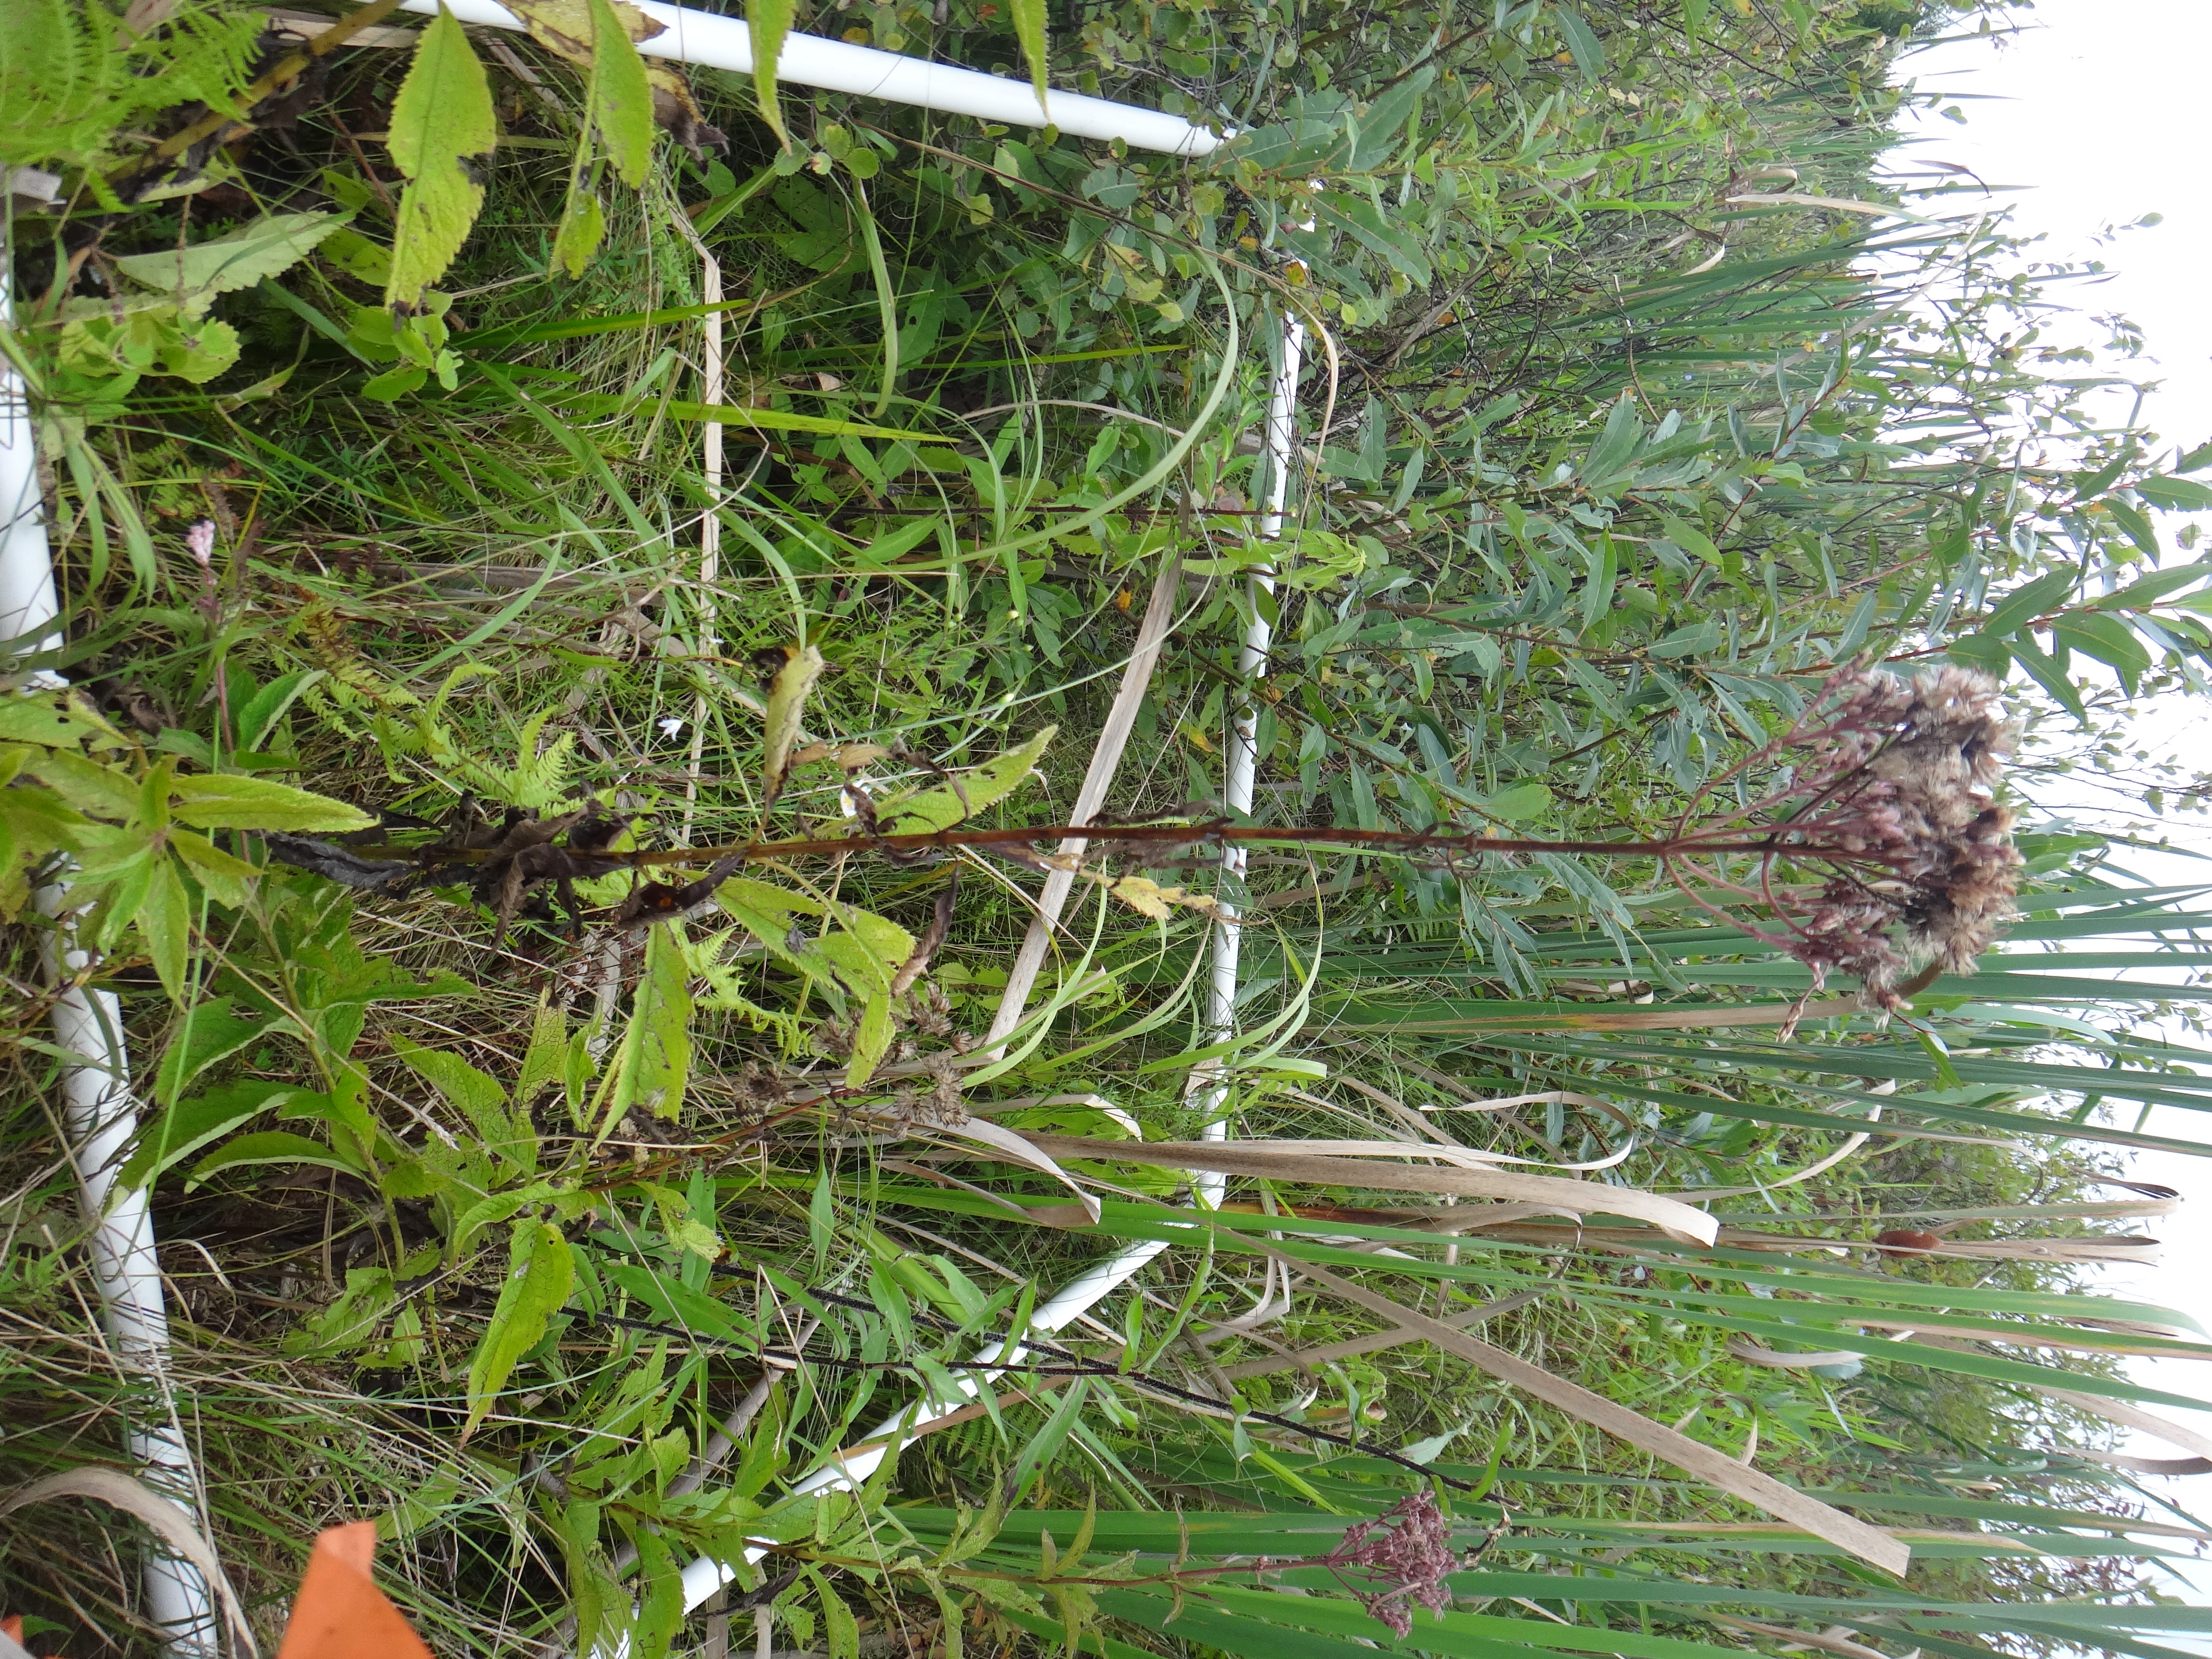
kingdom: Plantae
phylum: Tracheophyta
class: Magnoliopsida
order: Asterales
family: Campanulaceae
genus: Palustricodon
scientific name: Palustricodon aparinoides
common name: Bedstraw bellflower
